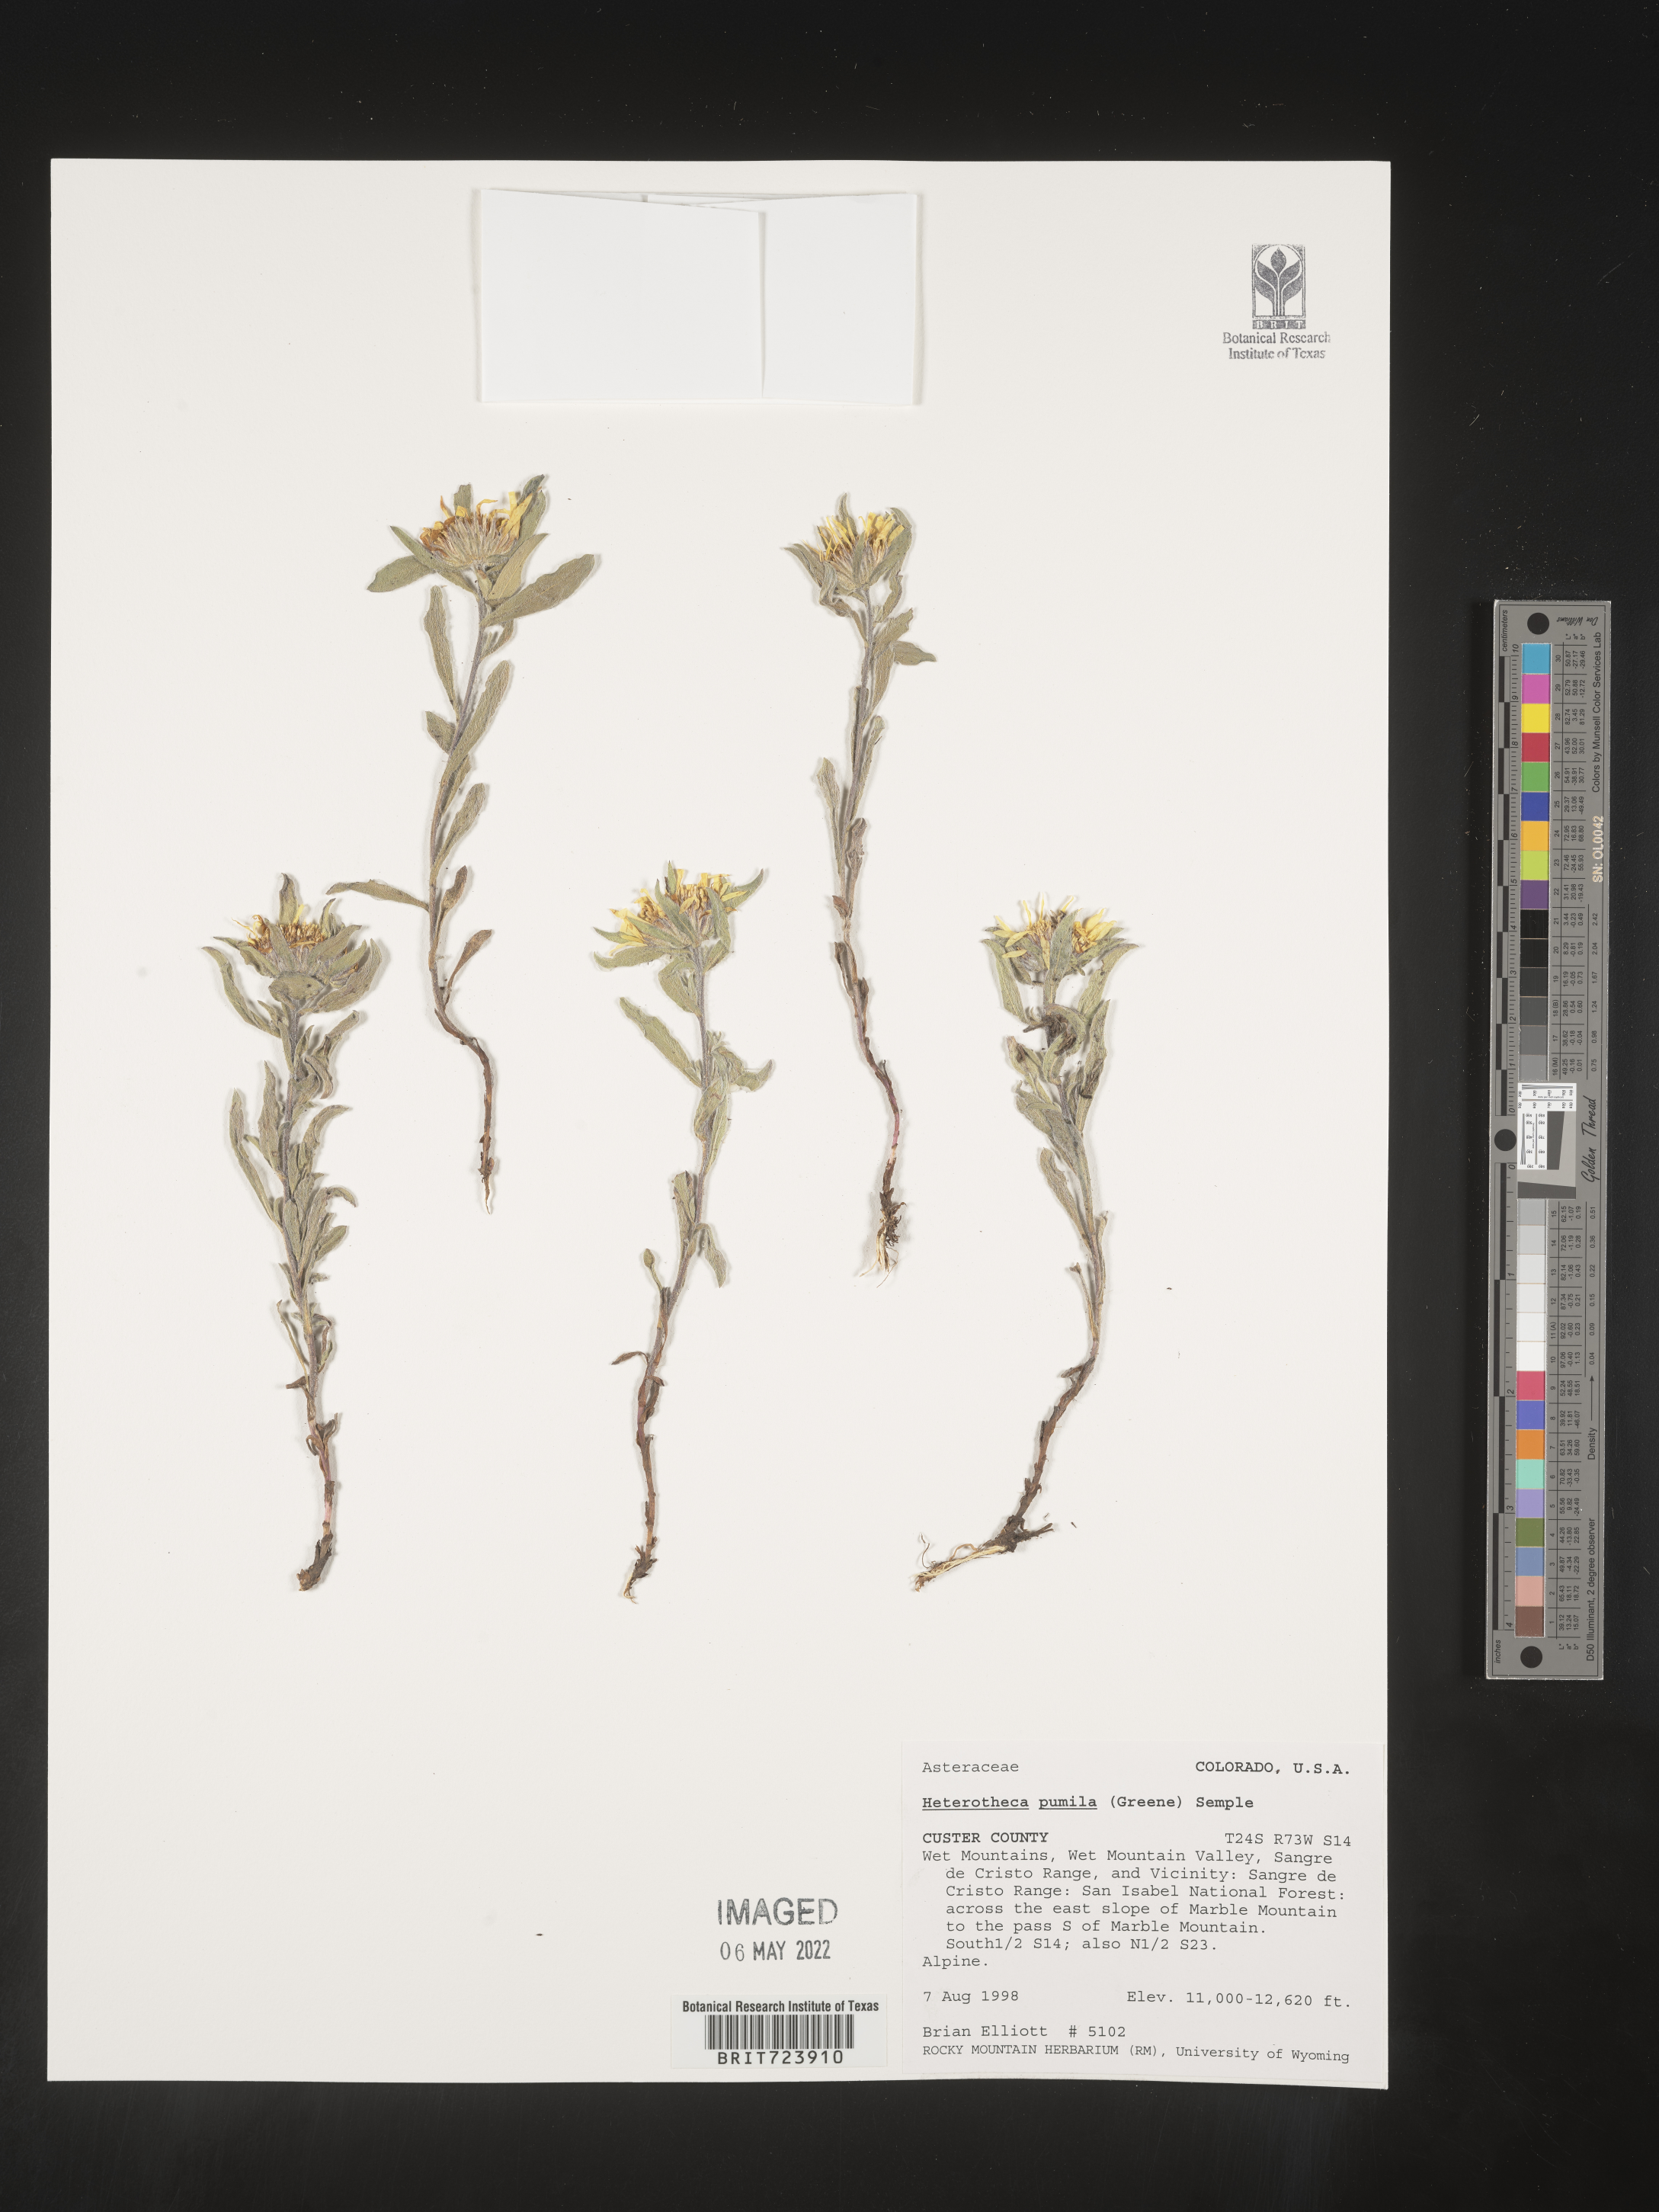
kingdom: Plantae
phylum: Tracheophyta
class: Magnoliopsida
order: Asterales
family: Asteraceae
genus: Heterotheca
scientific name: Heterotheca pumila
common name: Alpine golden-aster
